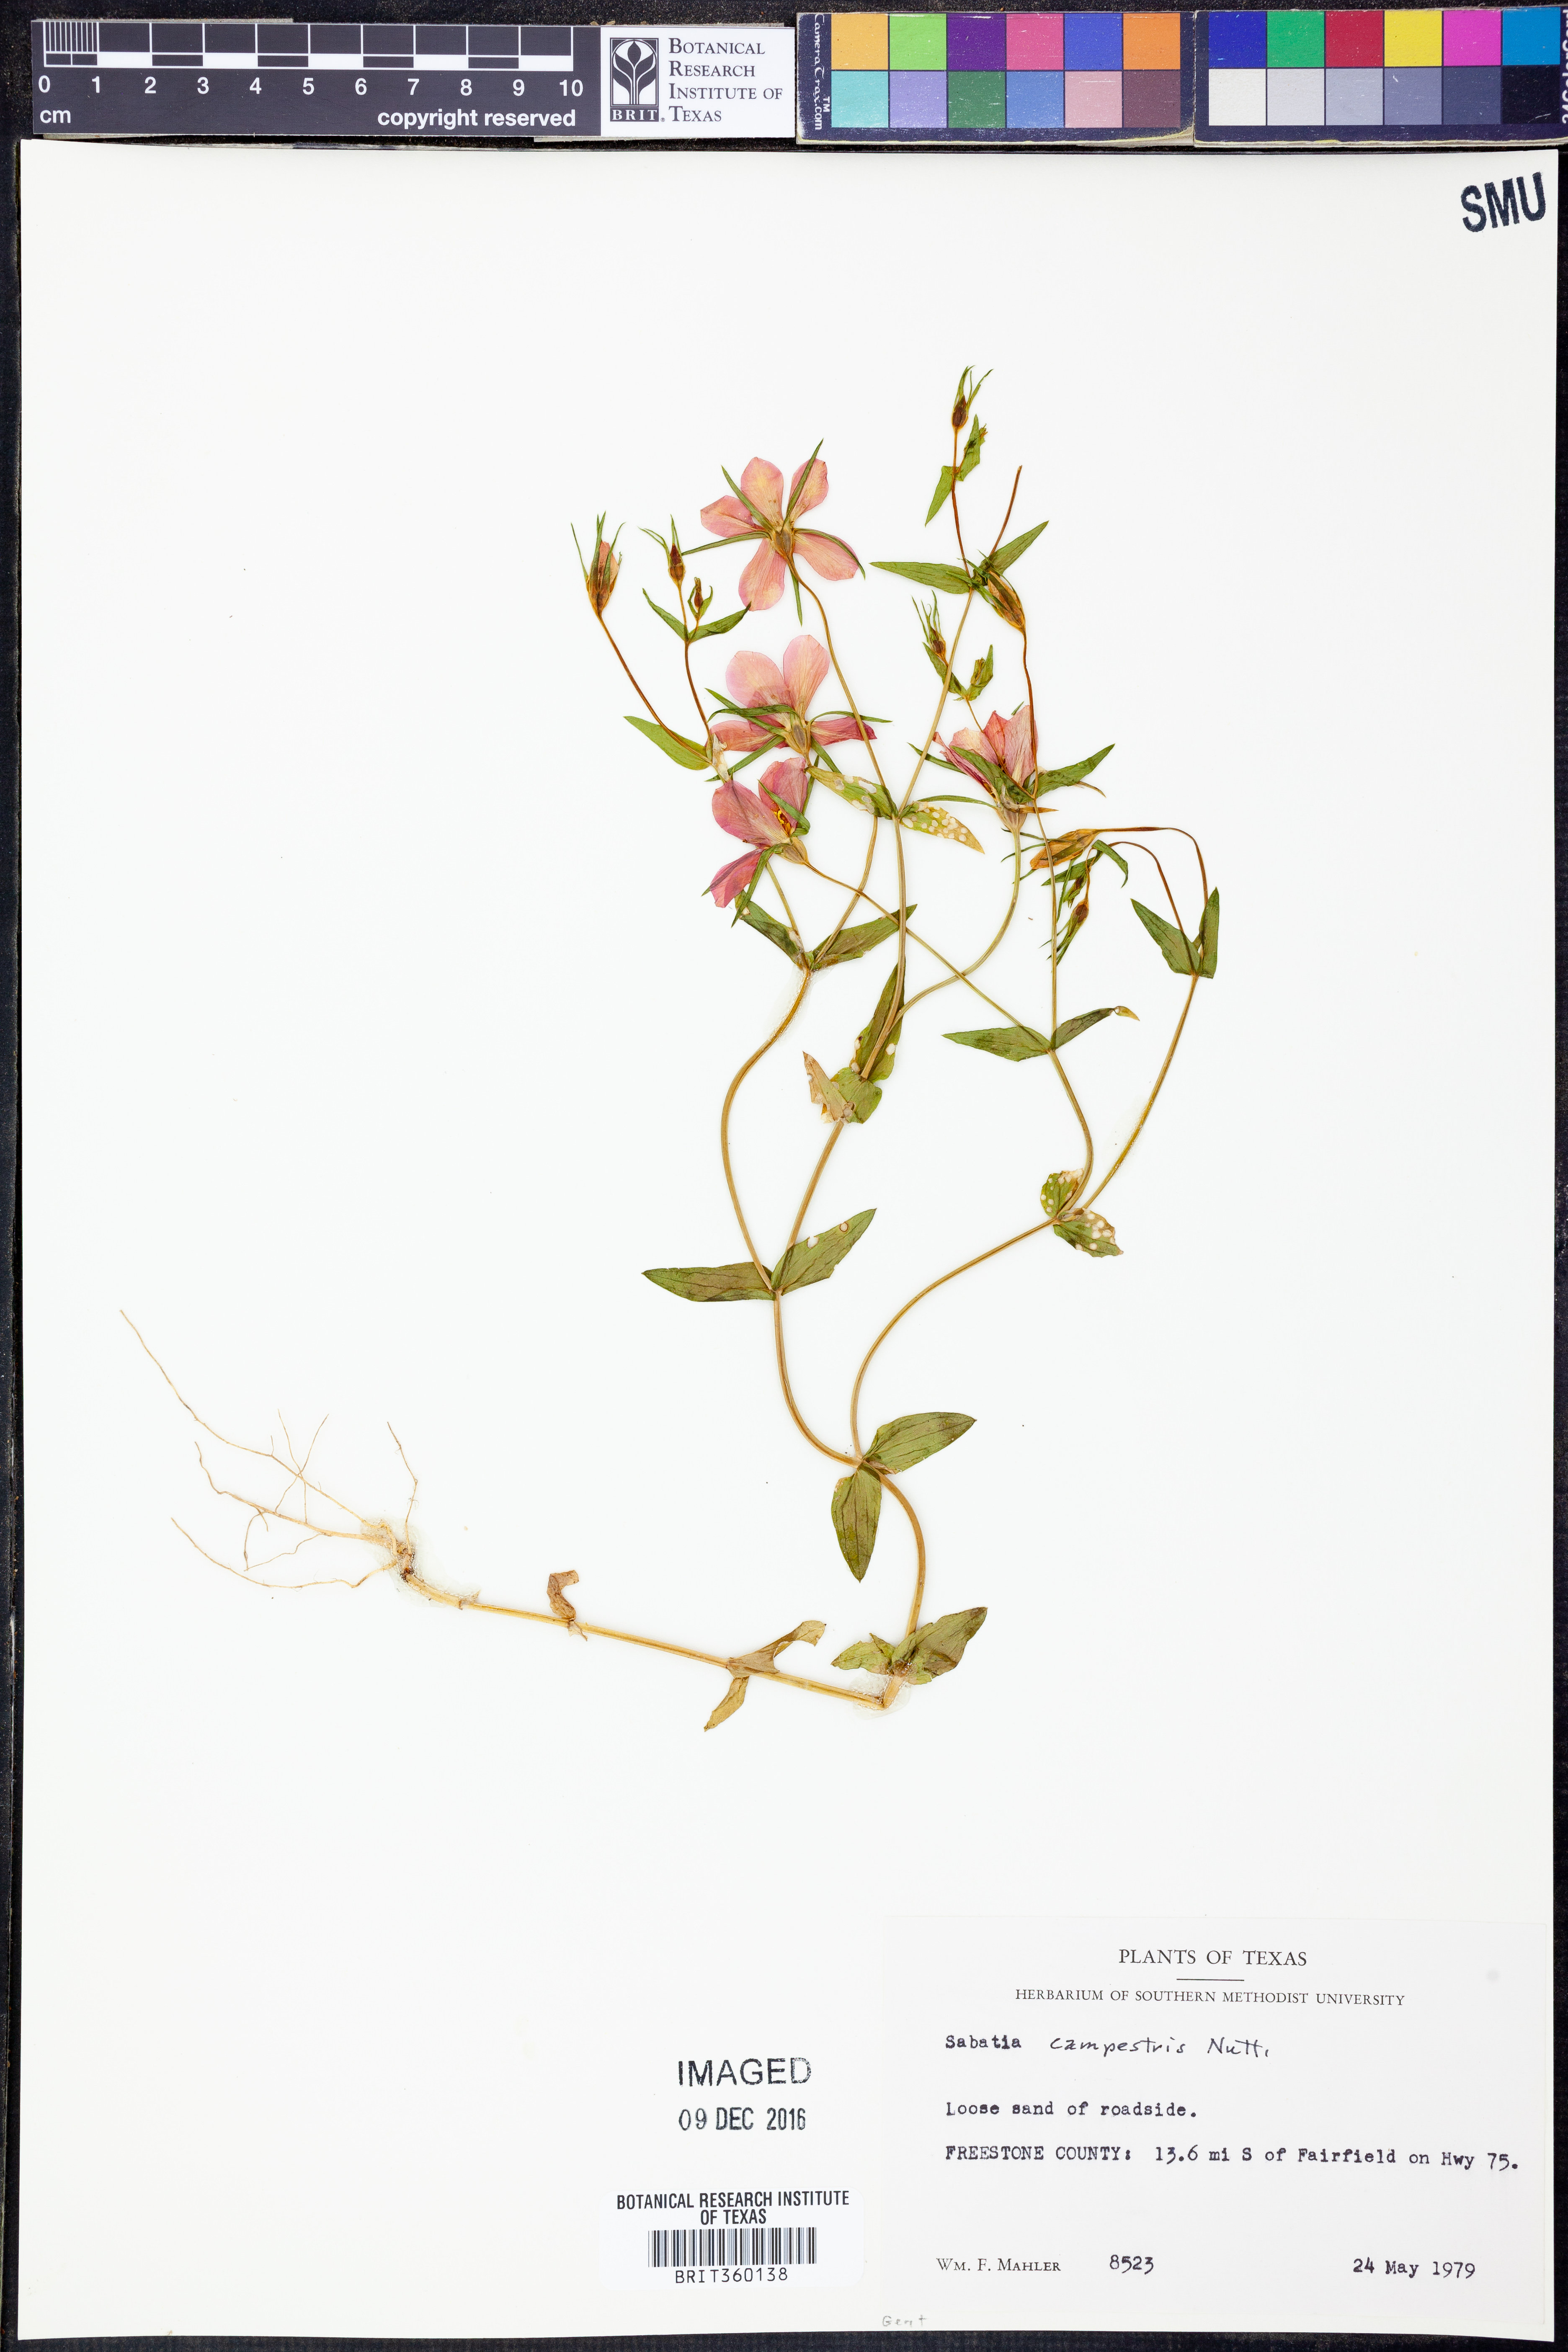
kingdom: Plantae
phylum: Tracheophyta
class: Magnoliopsida
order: Gentianales
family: Gentianaceae
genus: Sabatia
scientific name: Sabatia campestris
